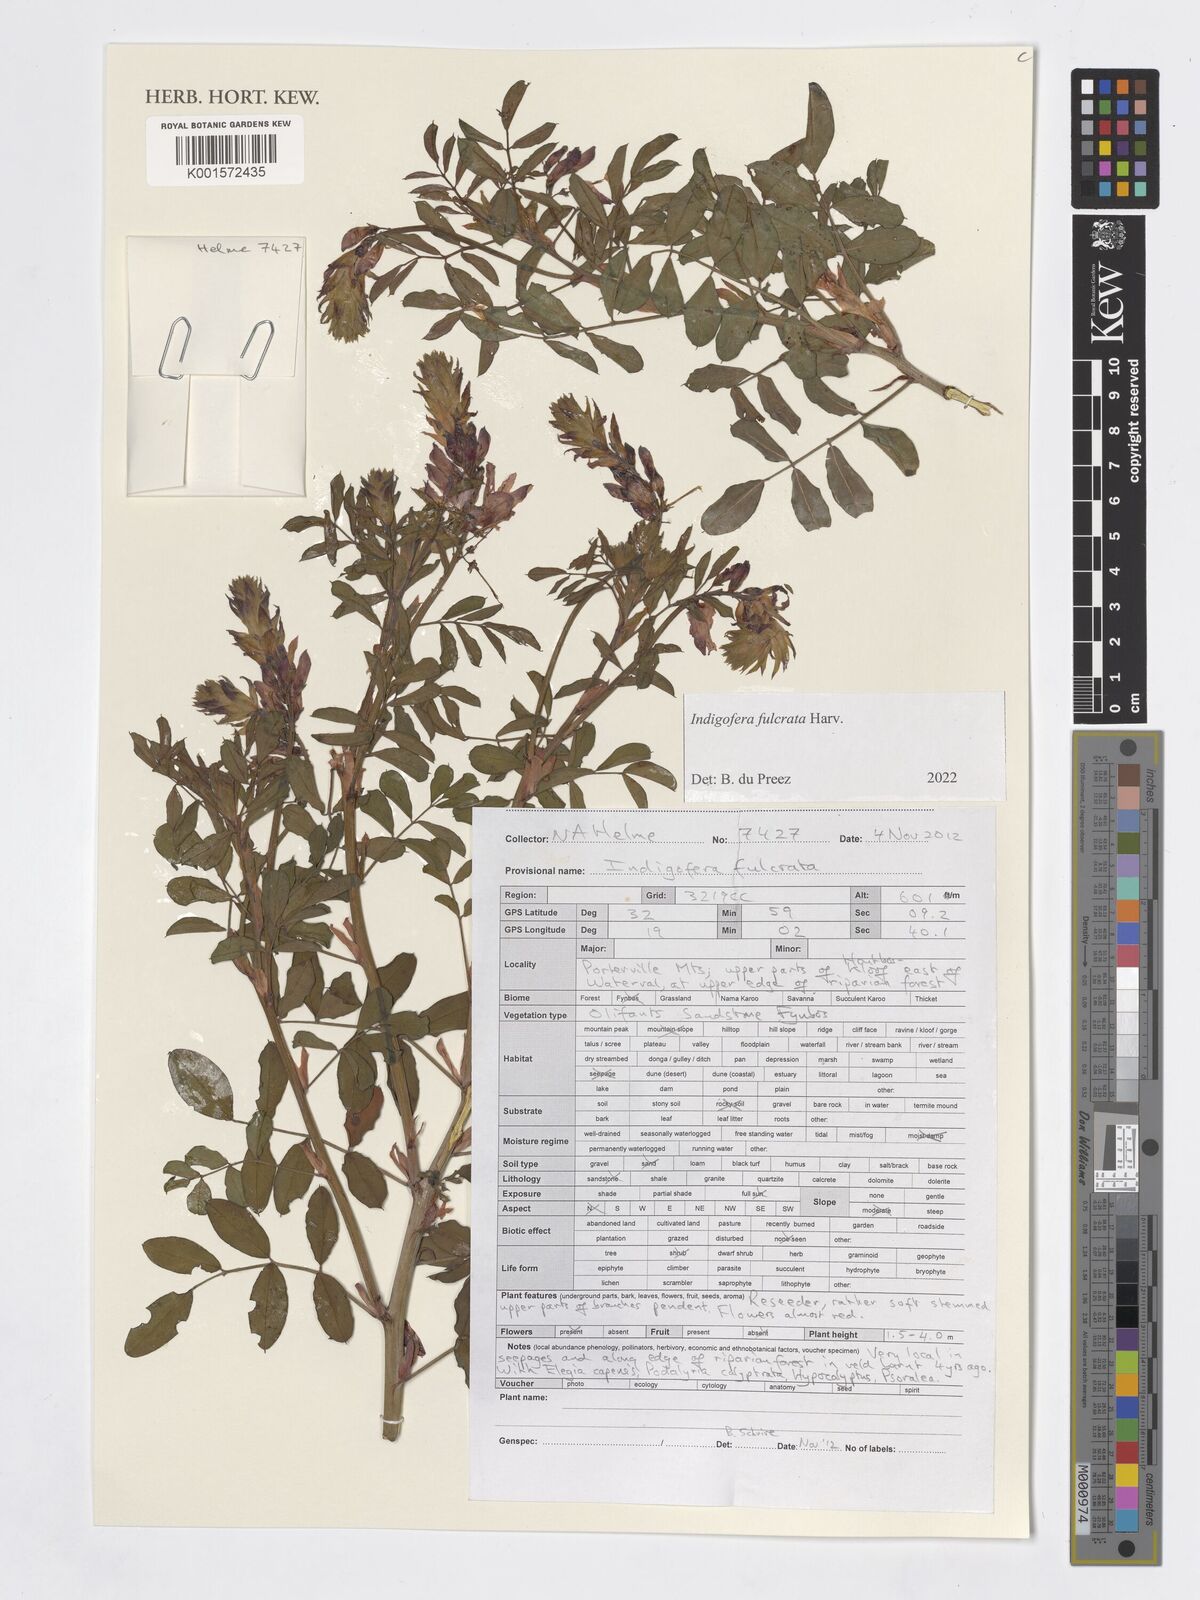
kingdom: Plantae
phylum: Tracheophyta
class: Magnoliopsida
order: Fabales
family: Fabaceae
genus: Indigofera
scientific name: Indigofera fulcrata
